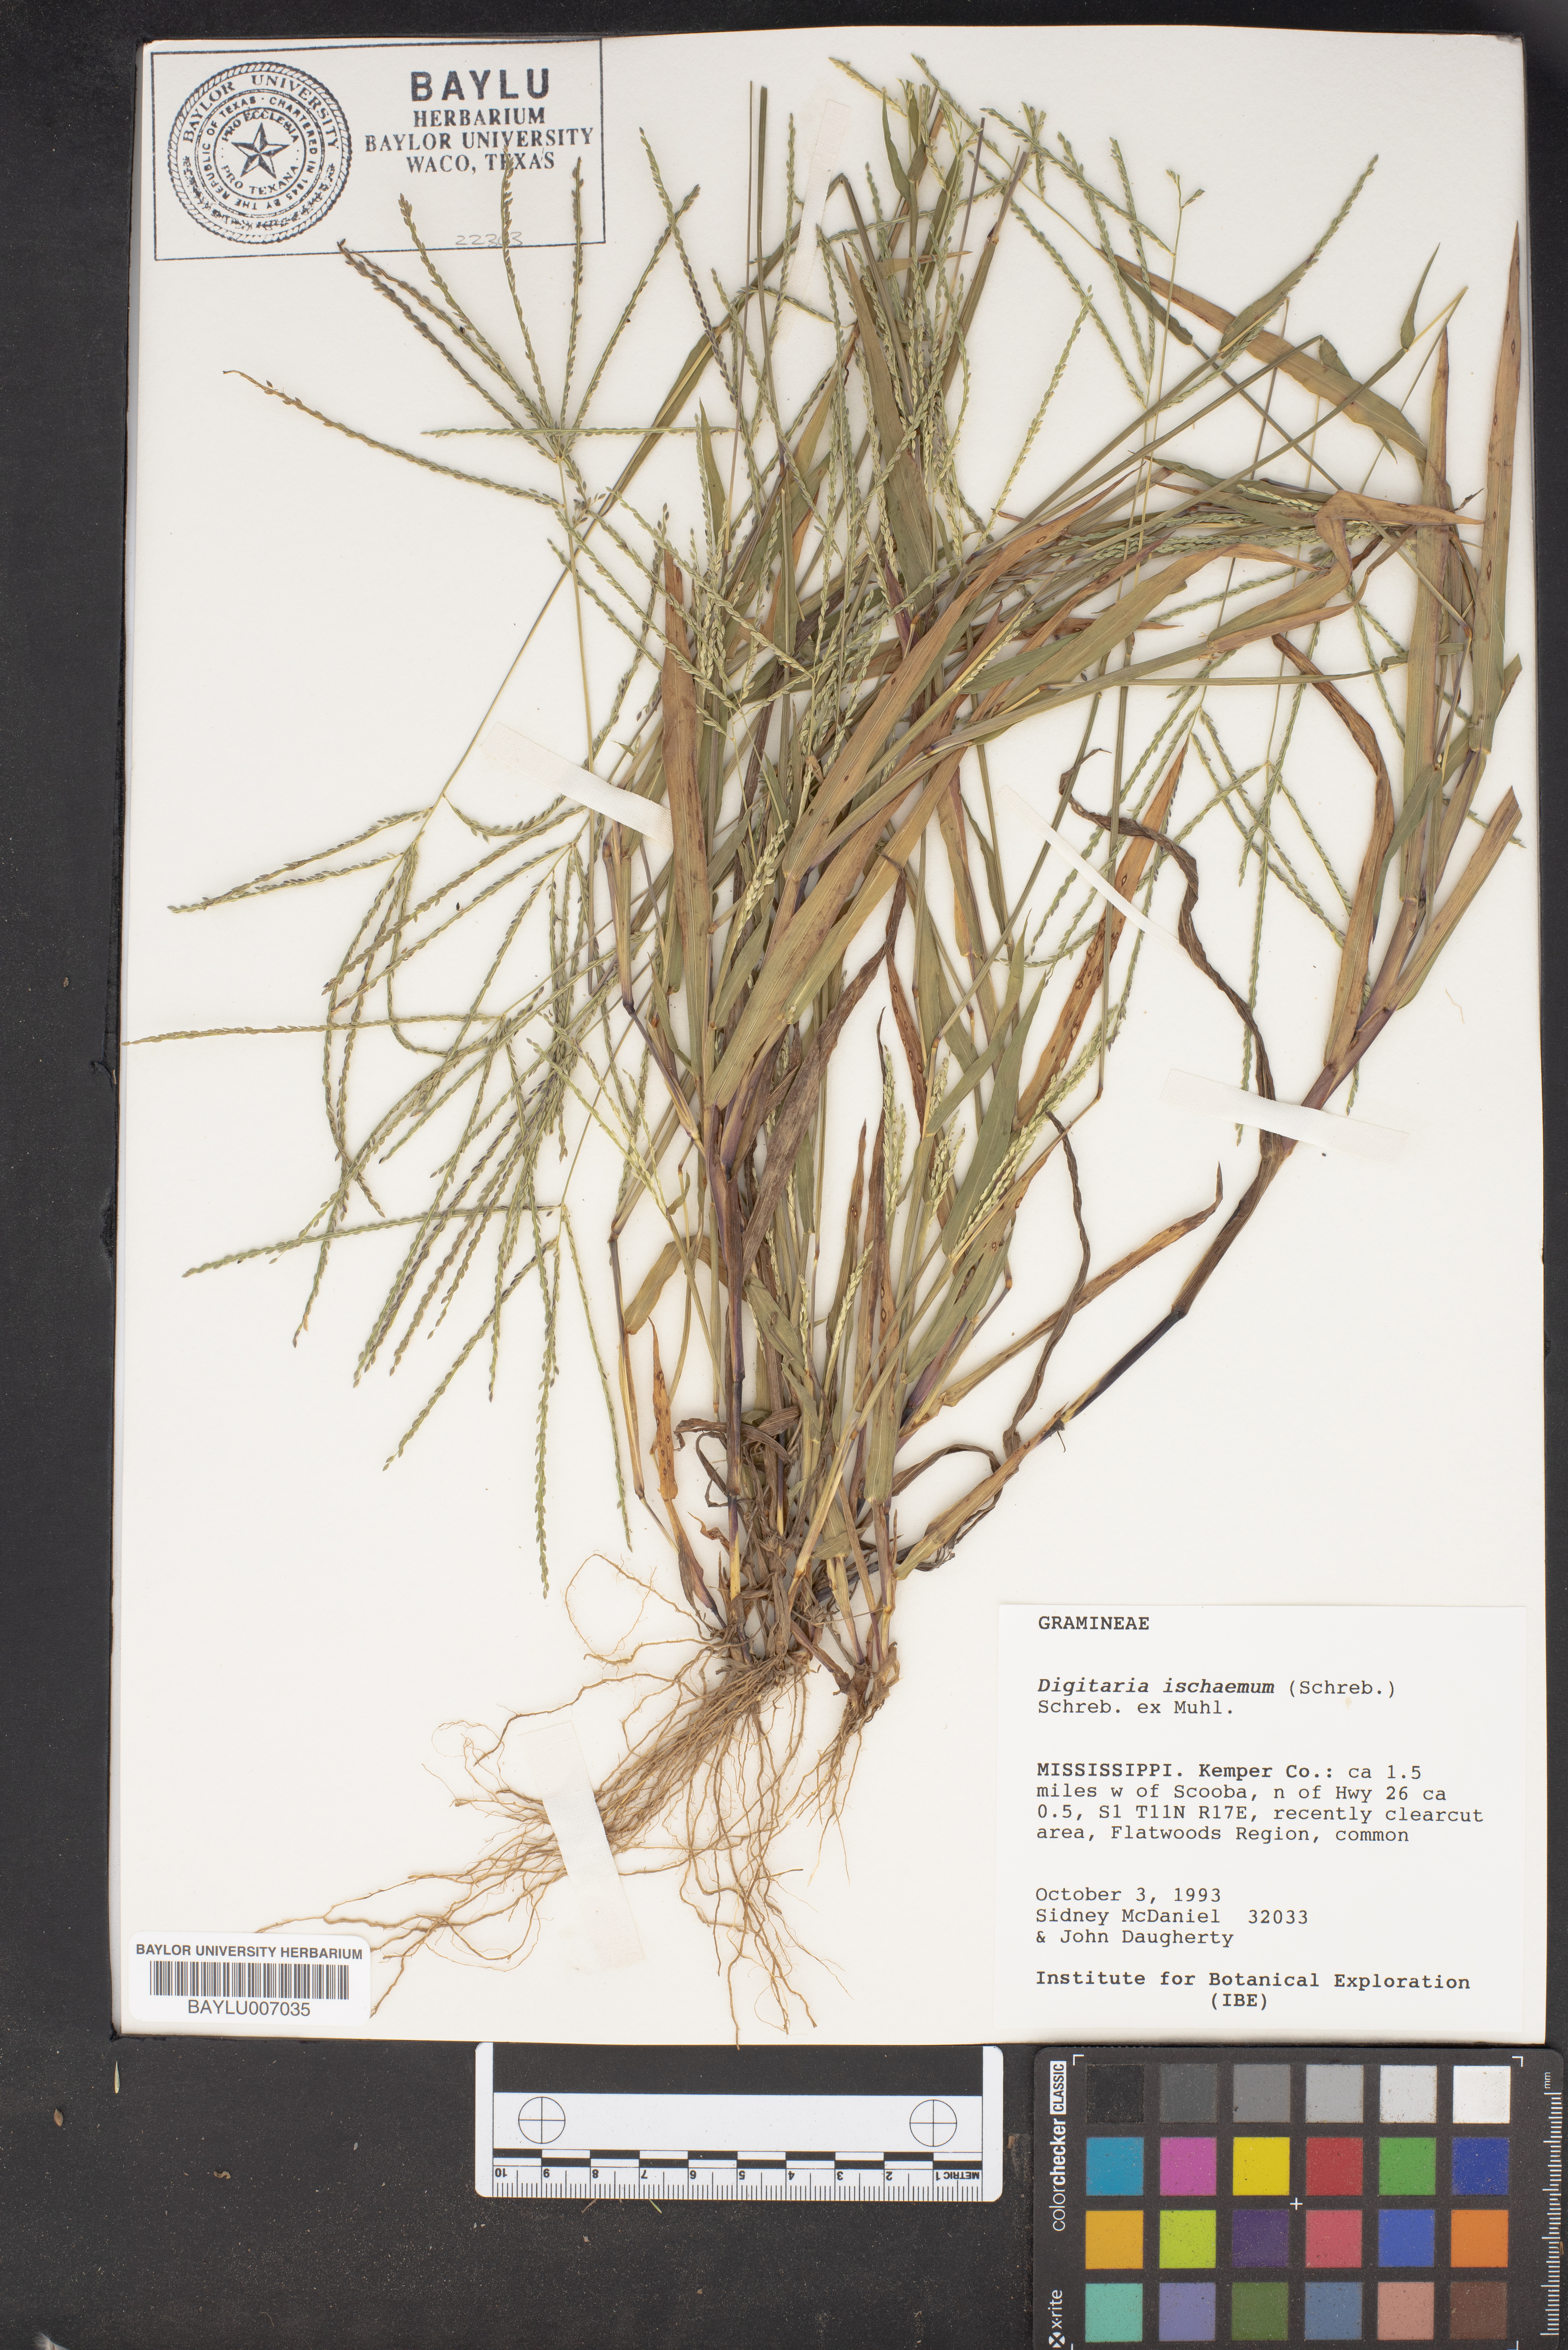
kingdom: Plantae
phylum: Tracheophyta
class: Liliopsida
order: Poales
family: Poaceae
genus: Digitaria
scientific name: Digitaria ischaemum
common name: Smooth crabgrass
